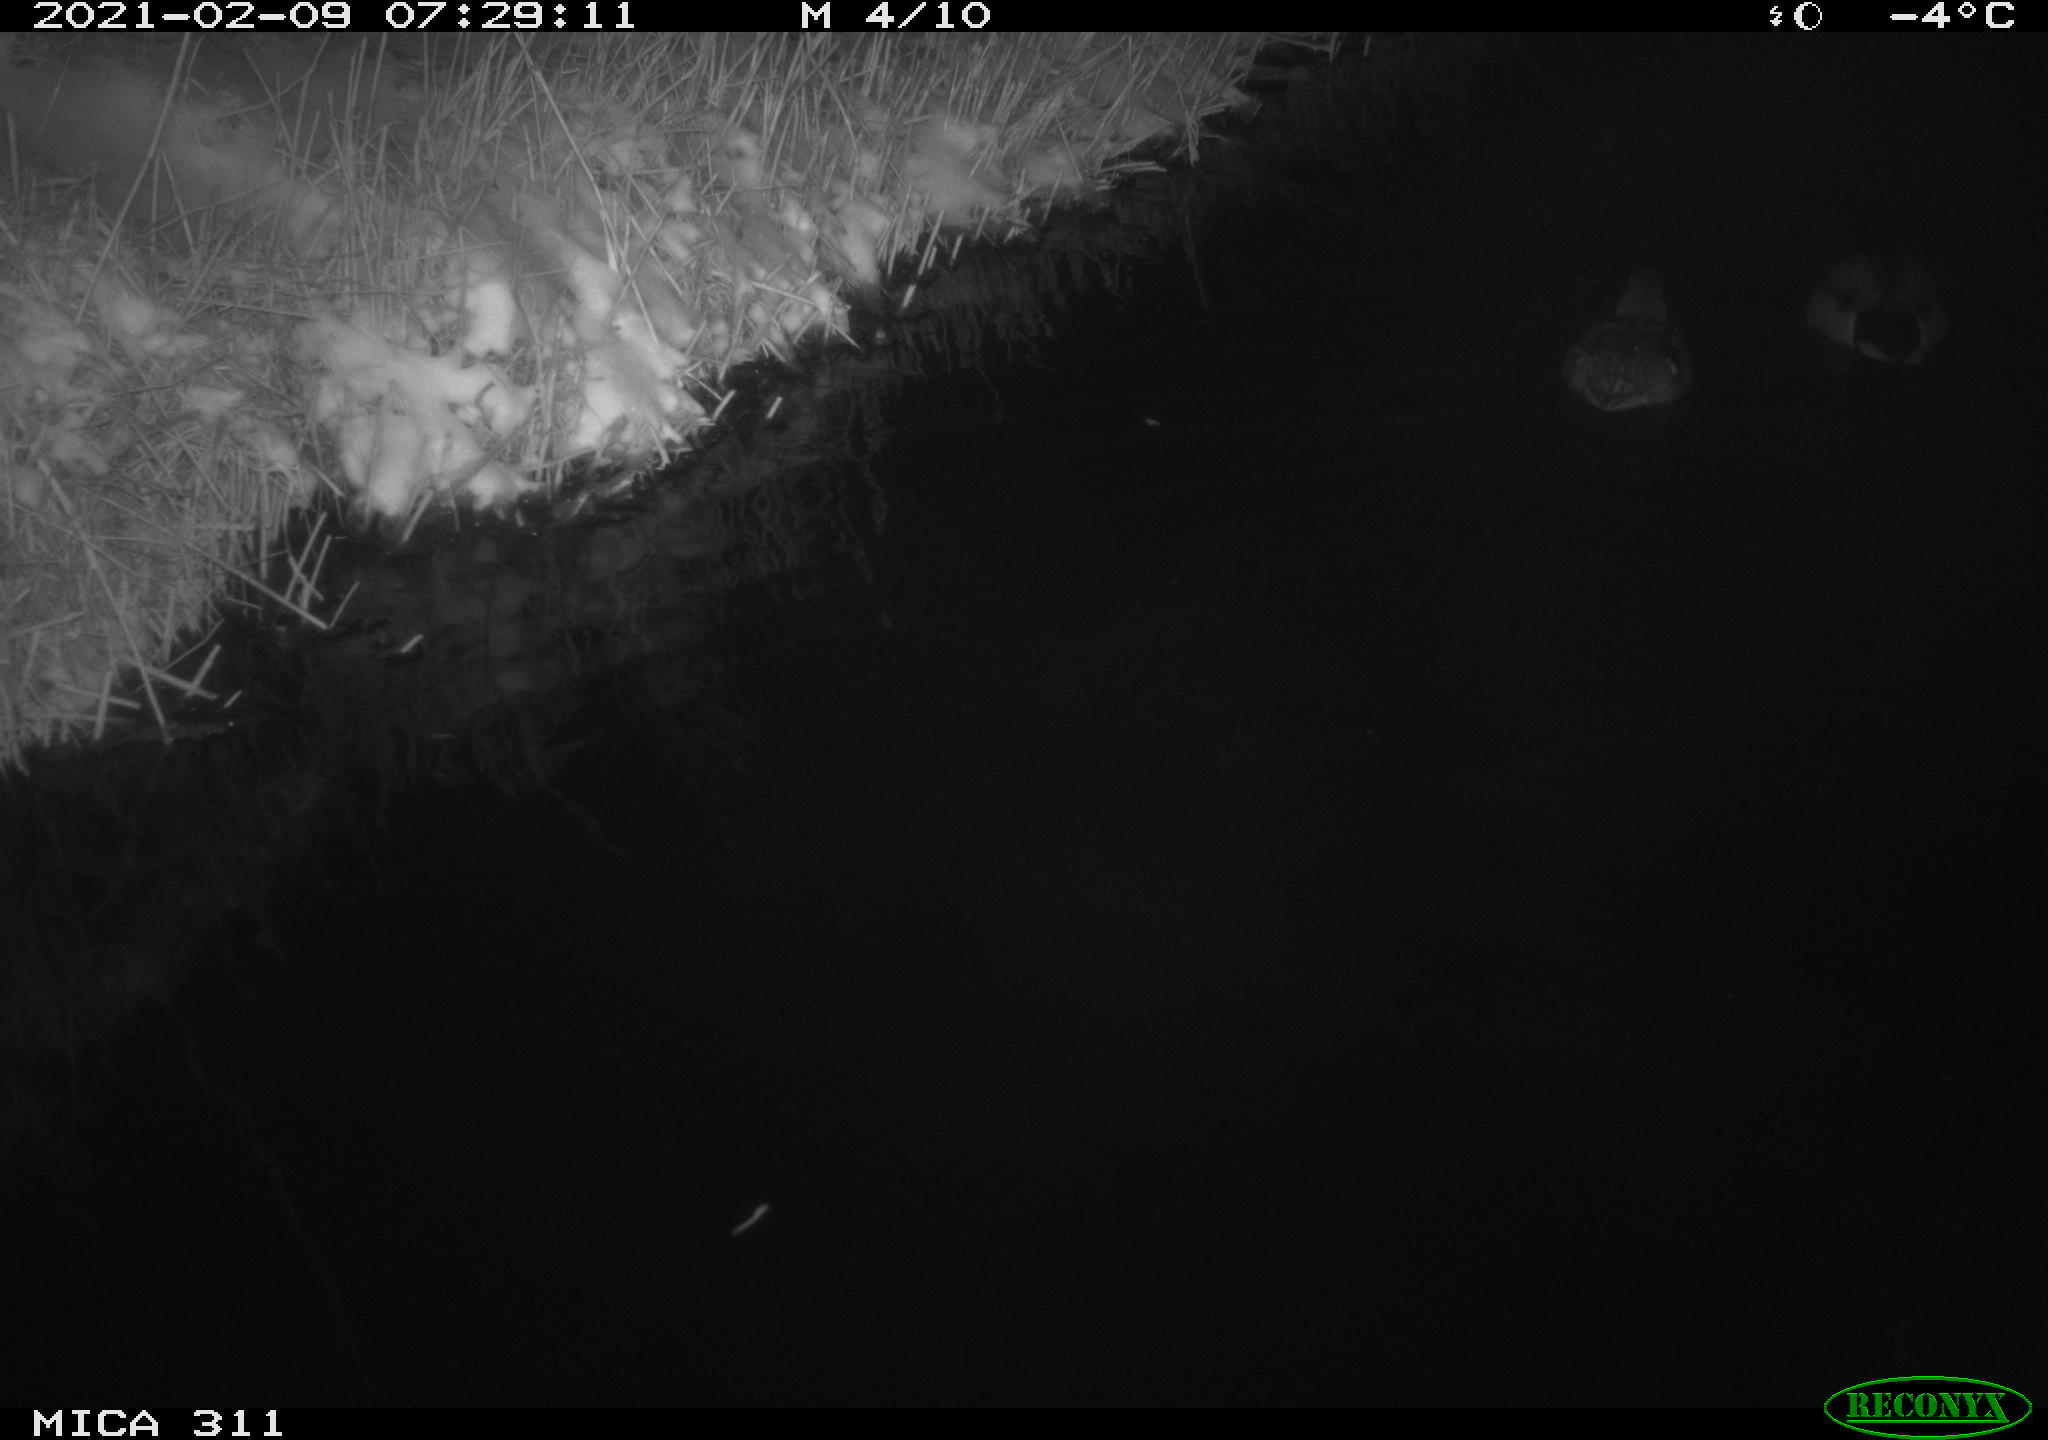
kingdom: Animalia
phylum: Chordata
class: Aves
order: Anseriformes
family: Anatidae
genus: Anas
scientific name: Anas platyrhynchos
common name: Mallard
